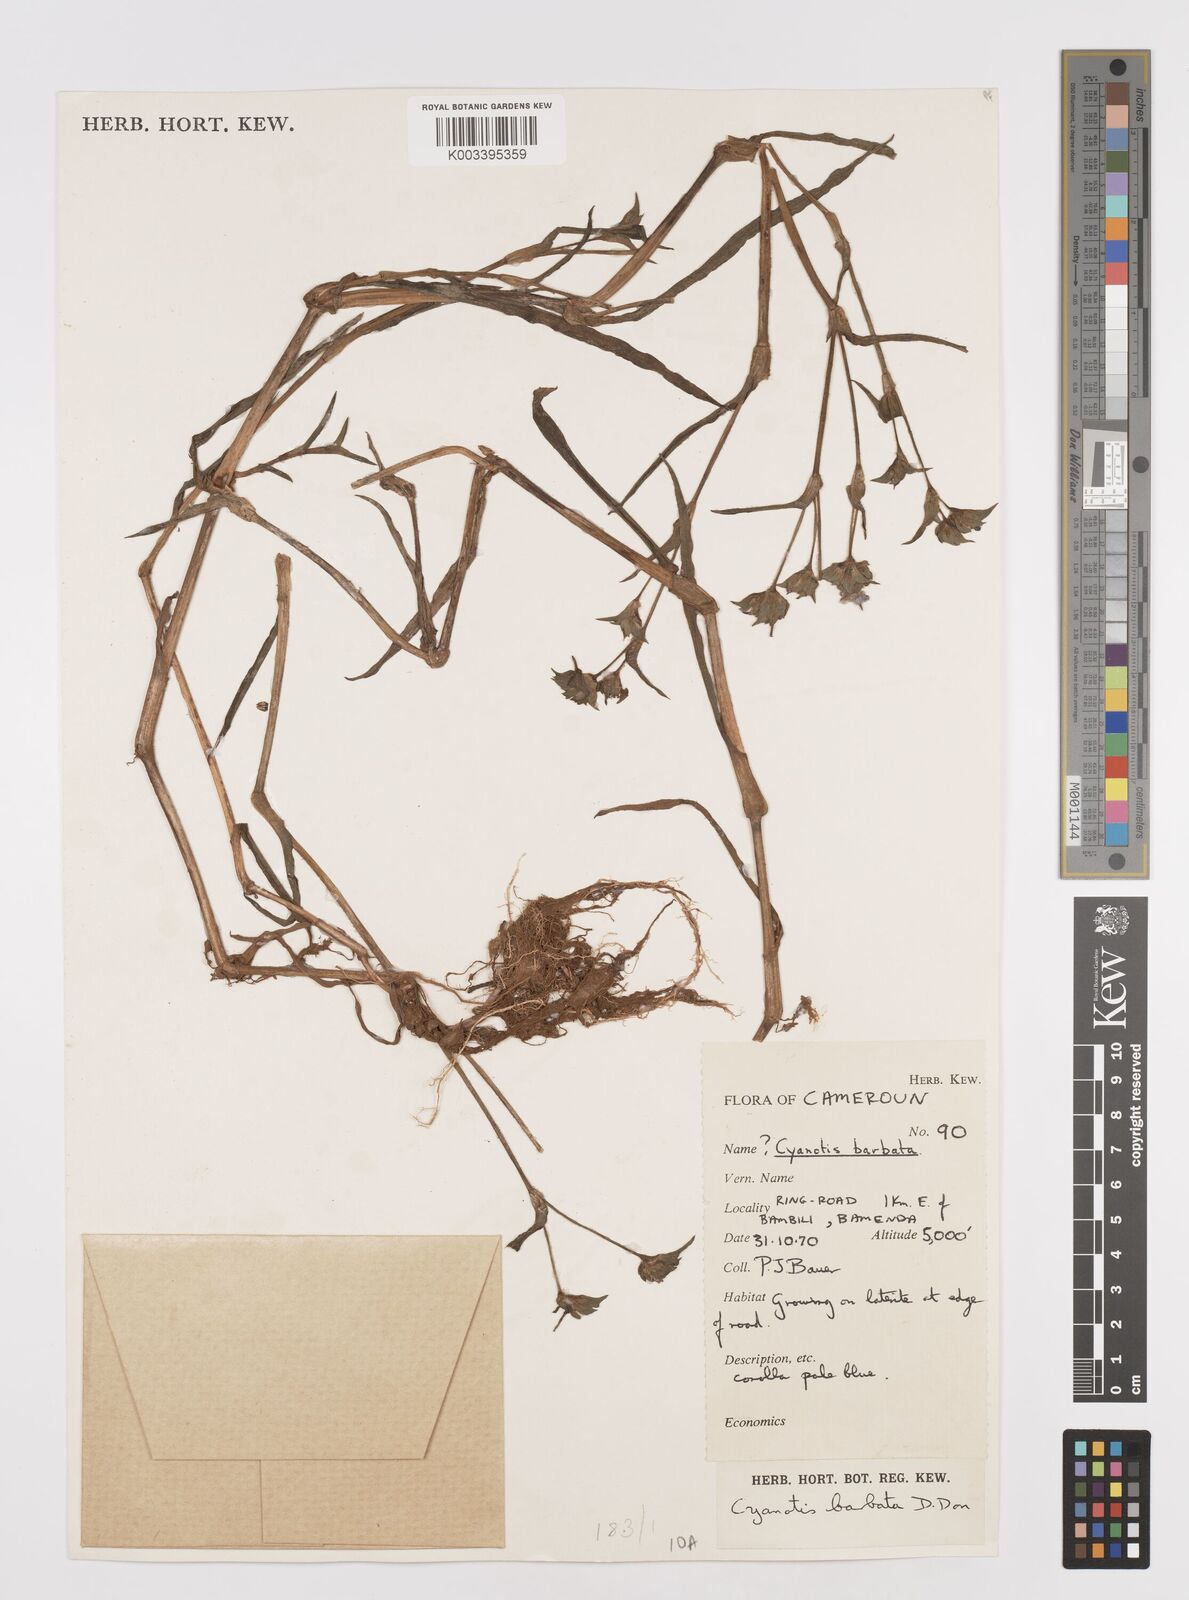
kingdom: Plantae
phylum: Tracheophyta
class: Liliopsida
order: Commelinales
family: Commelinaceae
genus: Cyanotis
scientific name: Cyanotis vaga
